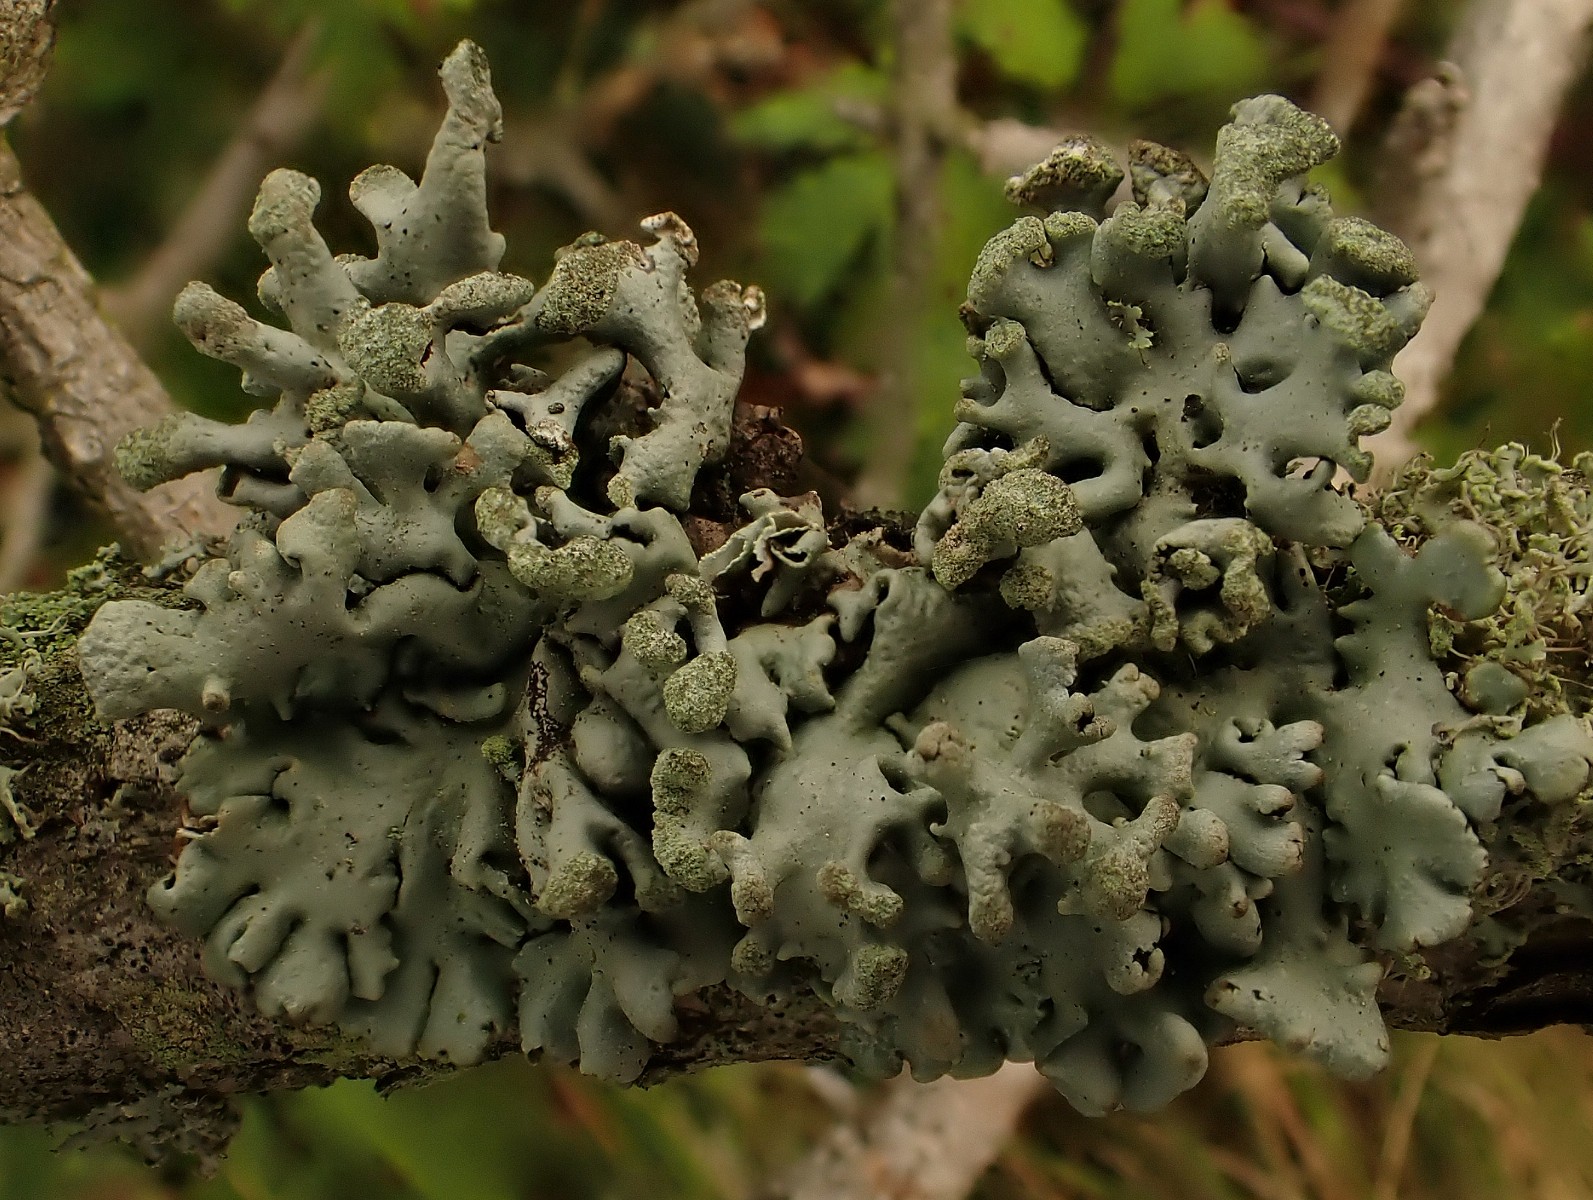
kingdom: Fungi
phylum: Ascomycota
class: Lecanoromycetes
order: Lecanorales
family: Parmeliaceae
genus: Hypogymnia
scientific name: Hypogymnia tubulosa
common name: finger-kvistlav
